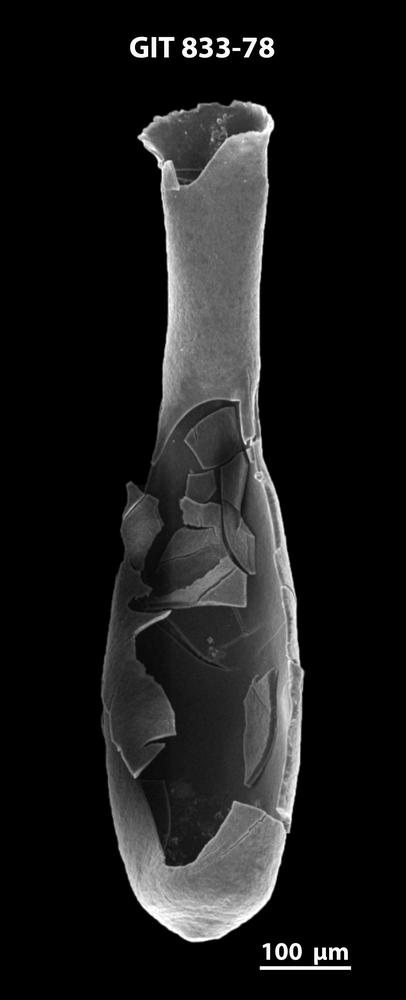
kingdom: Animalia
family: Lagenochitinidae
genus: Lagenochitina
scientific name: Lagenochitina megaesthonica
